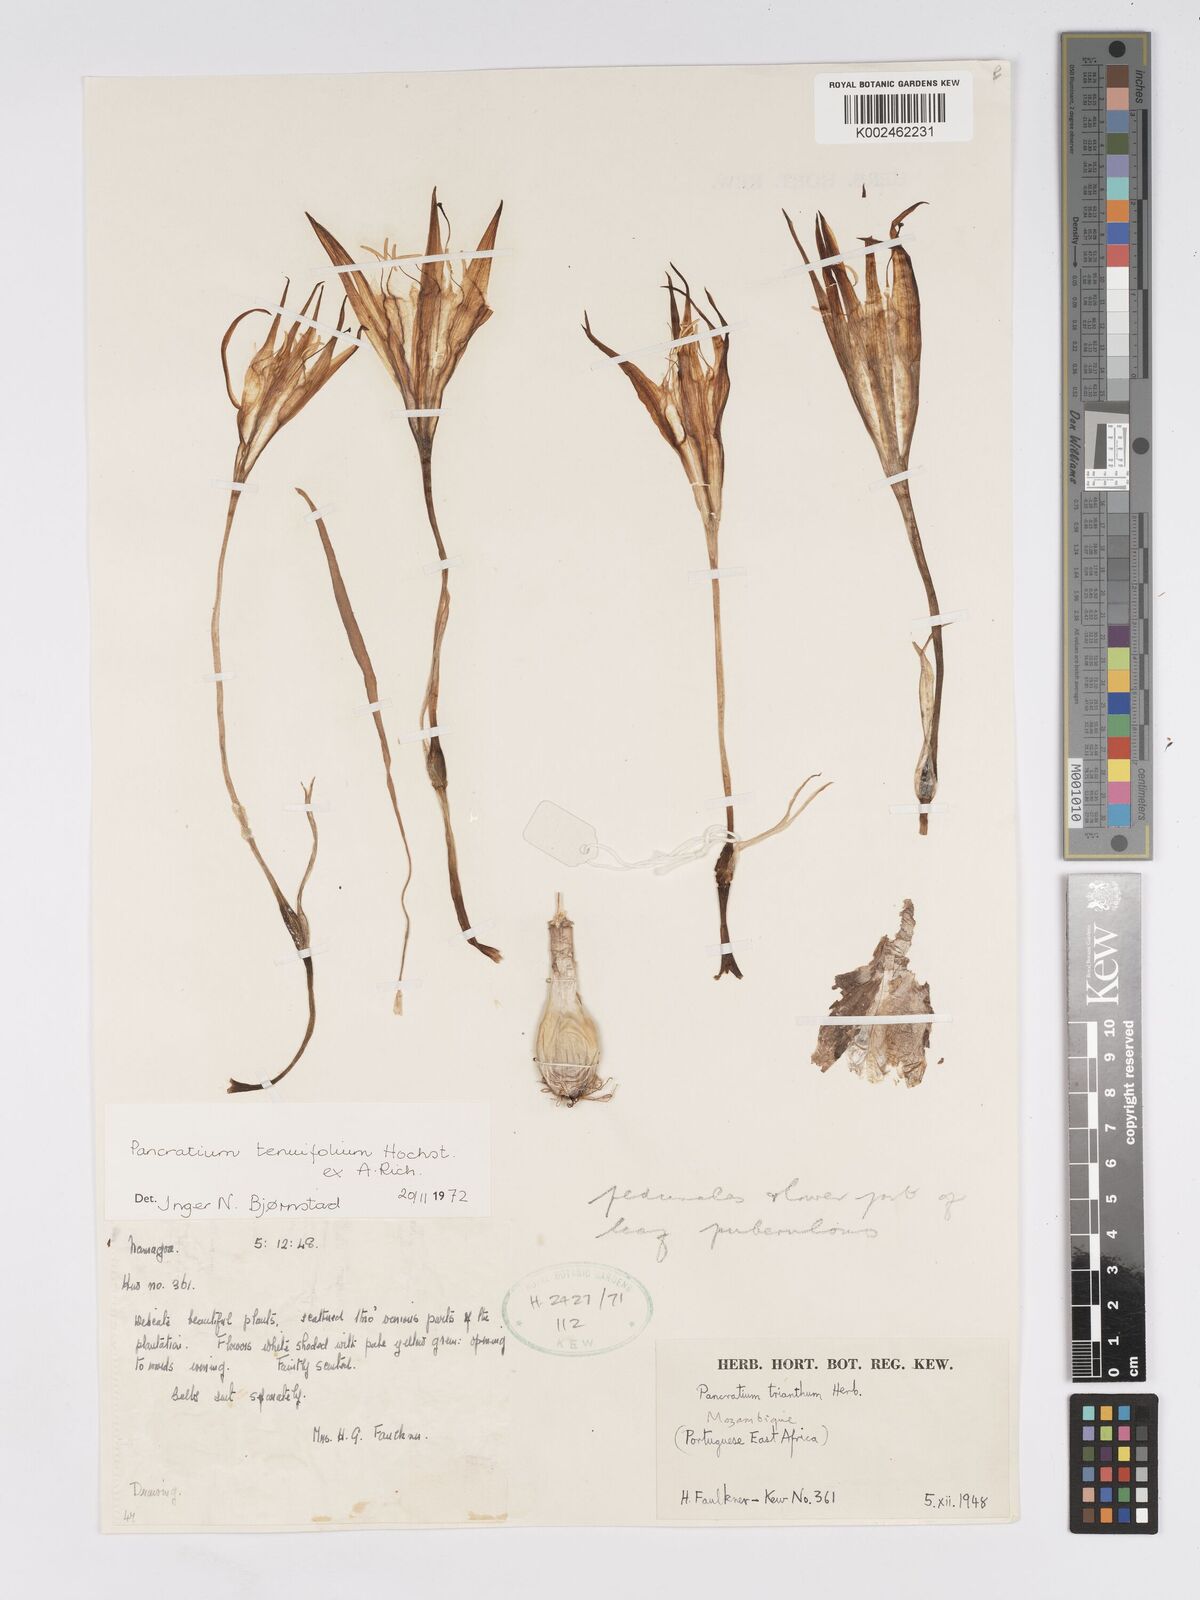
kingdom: Plantae
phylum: Tracheophyta
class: Liliopsida
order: Asparagales
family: Amaryllidaceae
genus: Pancratium
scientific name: Pancratium tenuifolium
